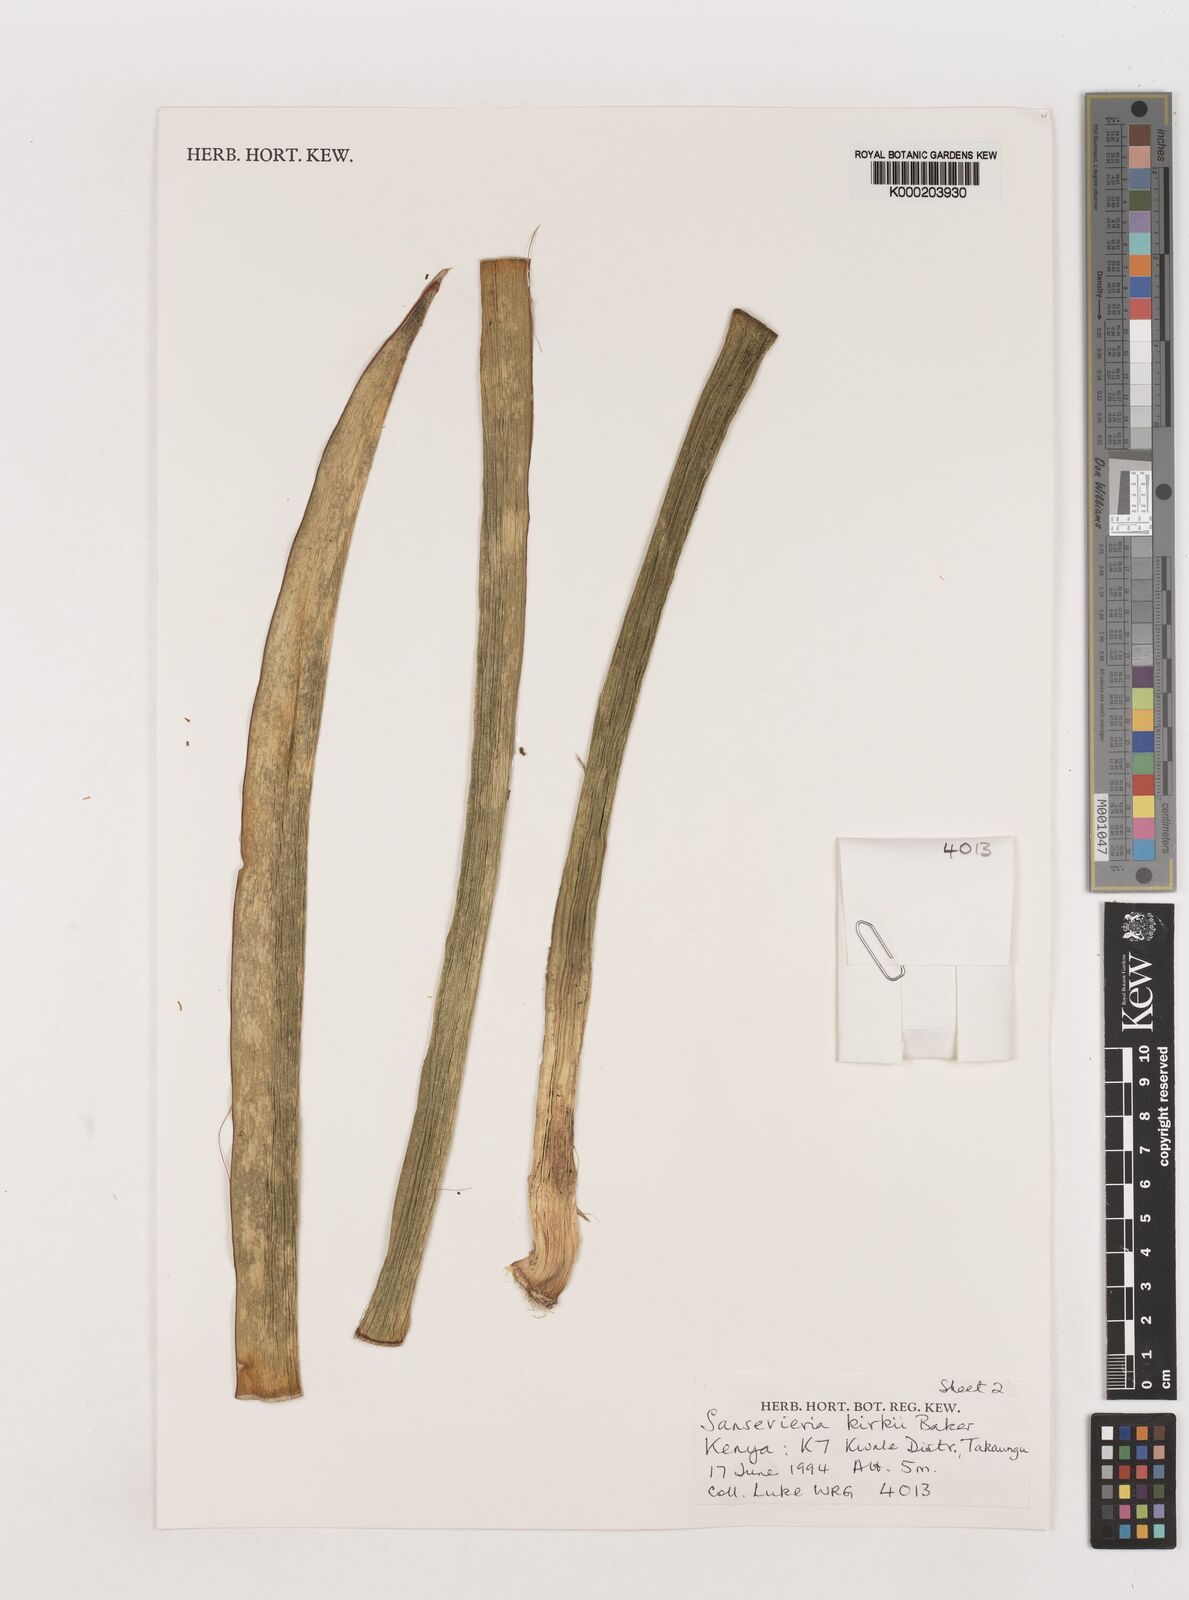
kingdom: Plantae
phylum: Tracheophyta
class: Liliopsida
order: Asparagales
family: Asparagaceae
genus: Dracaena
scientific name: Dracaena pethera
